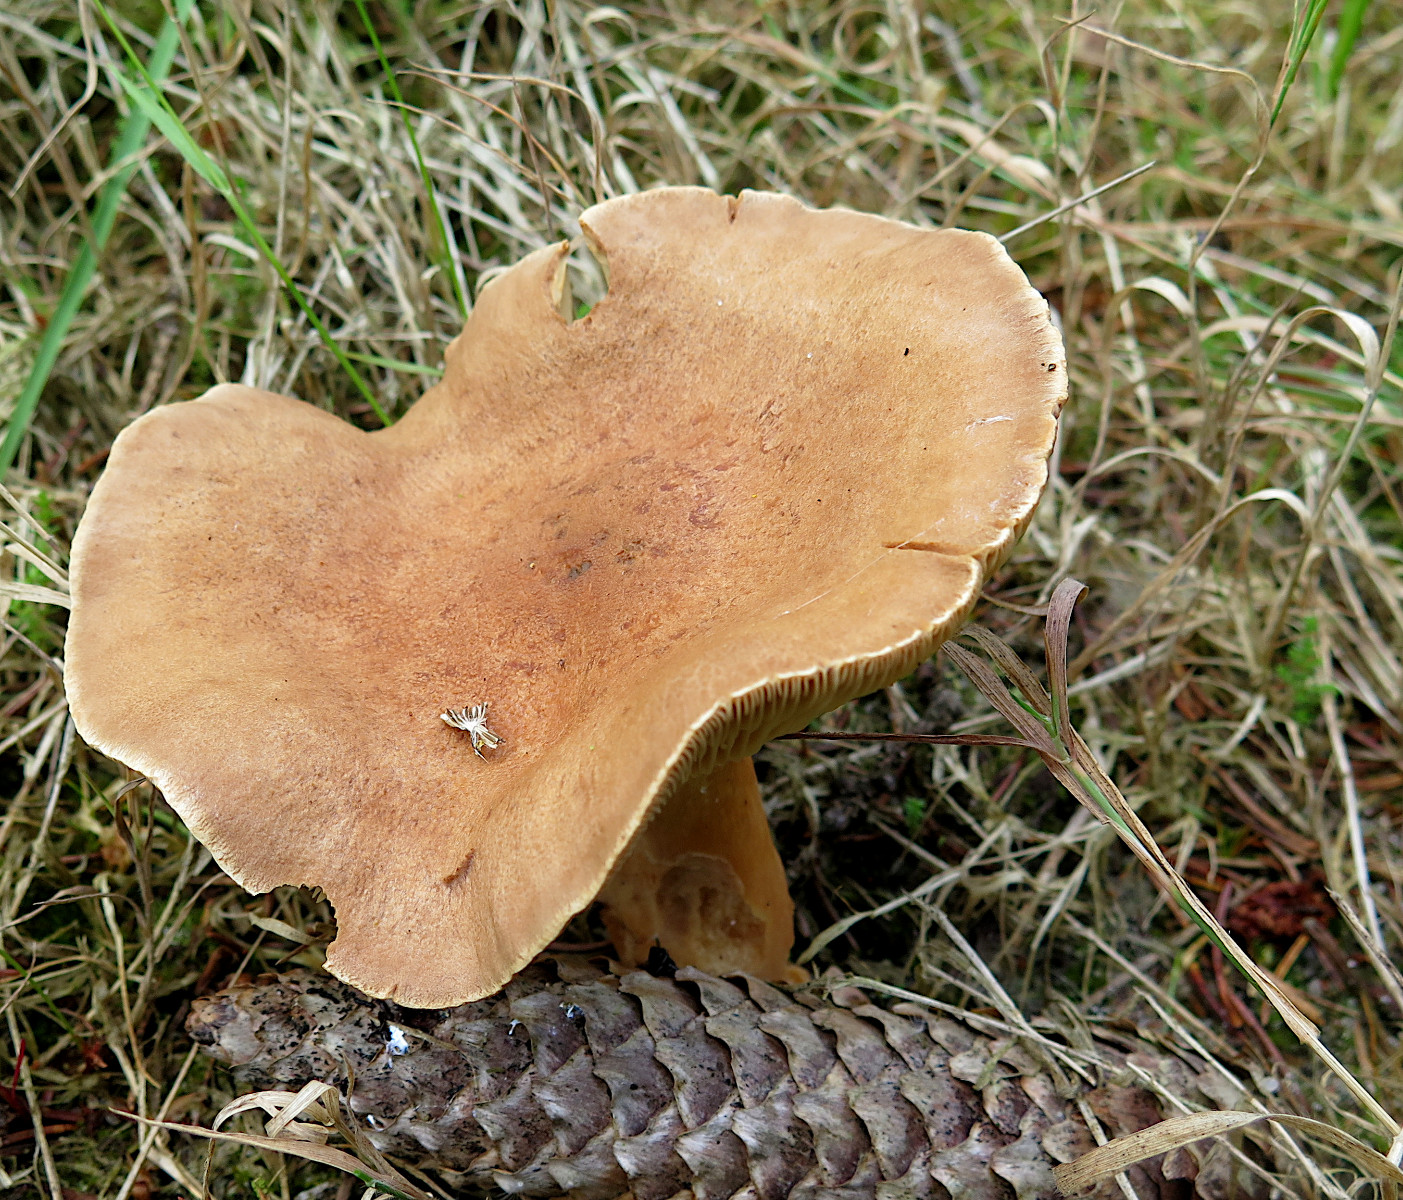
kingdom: Fungi
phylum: Basidiomycota
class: Agaricomycetes
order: Russulales
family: Russulaceae
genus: Lactarius
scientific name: Lactarius helvus
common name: mose-mælkehat
